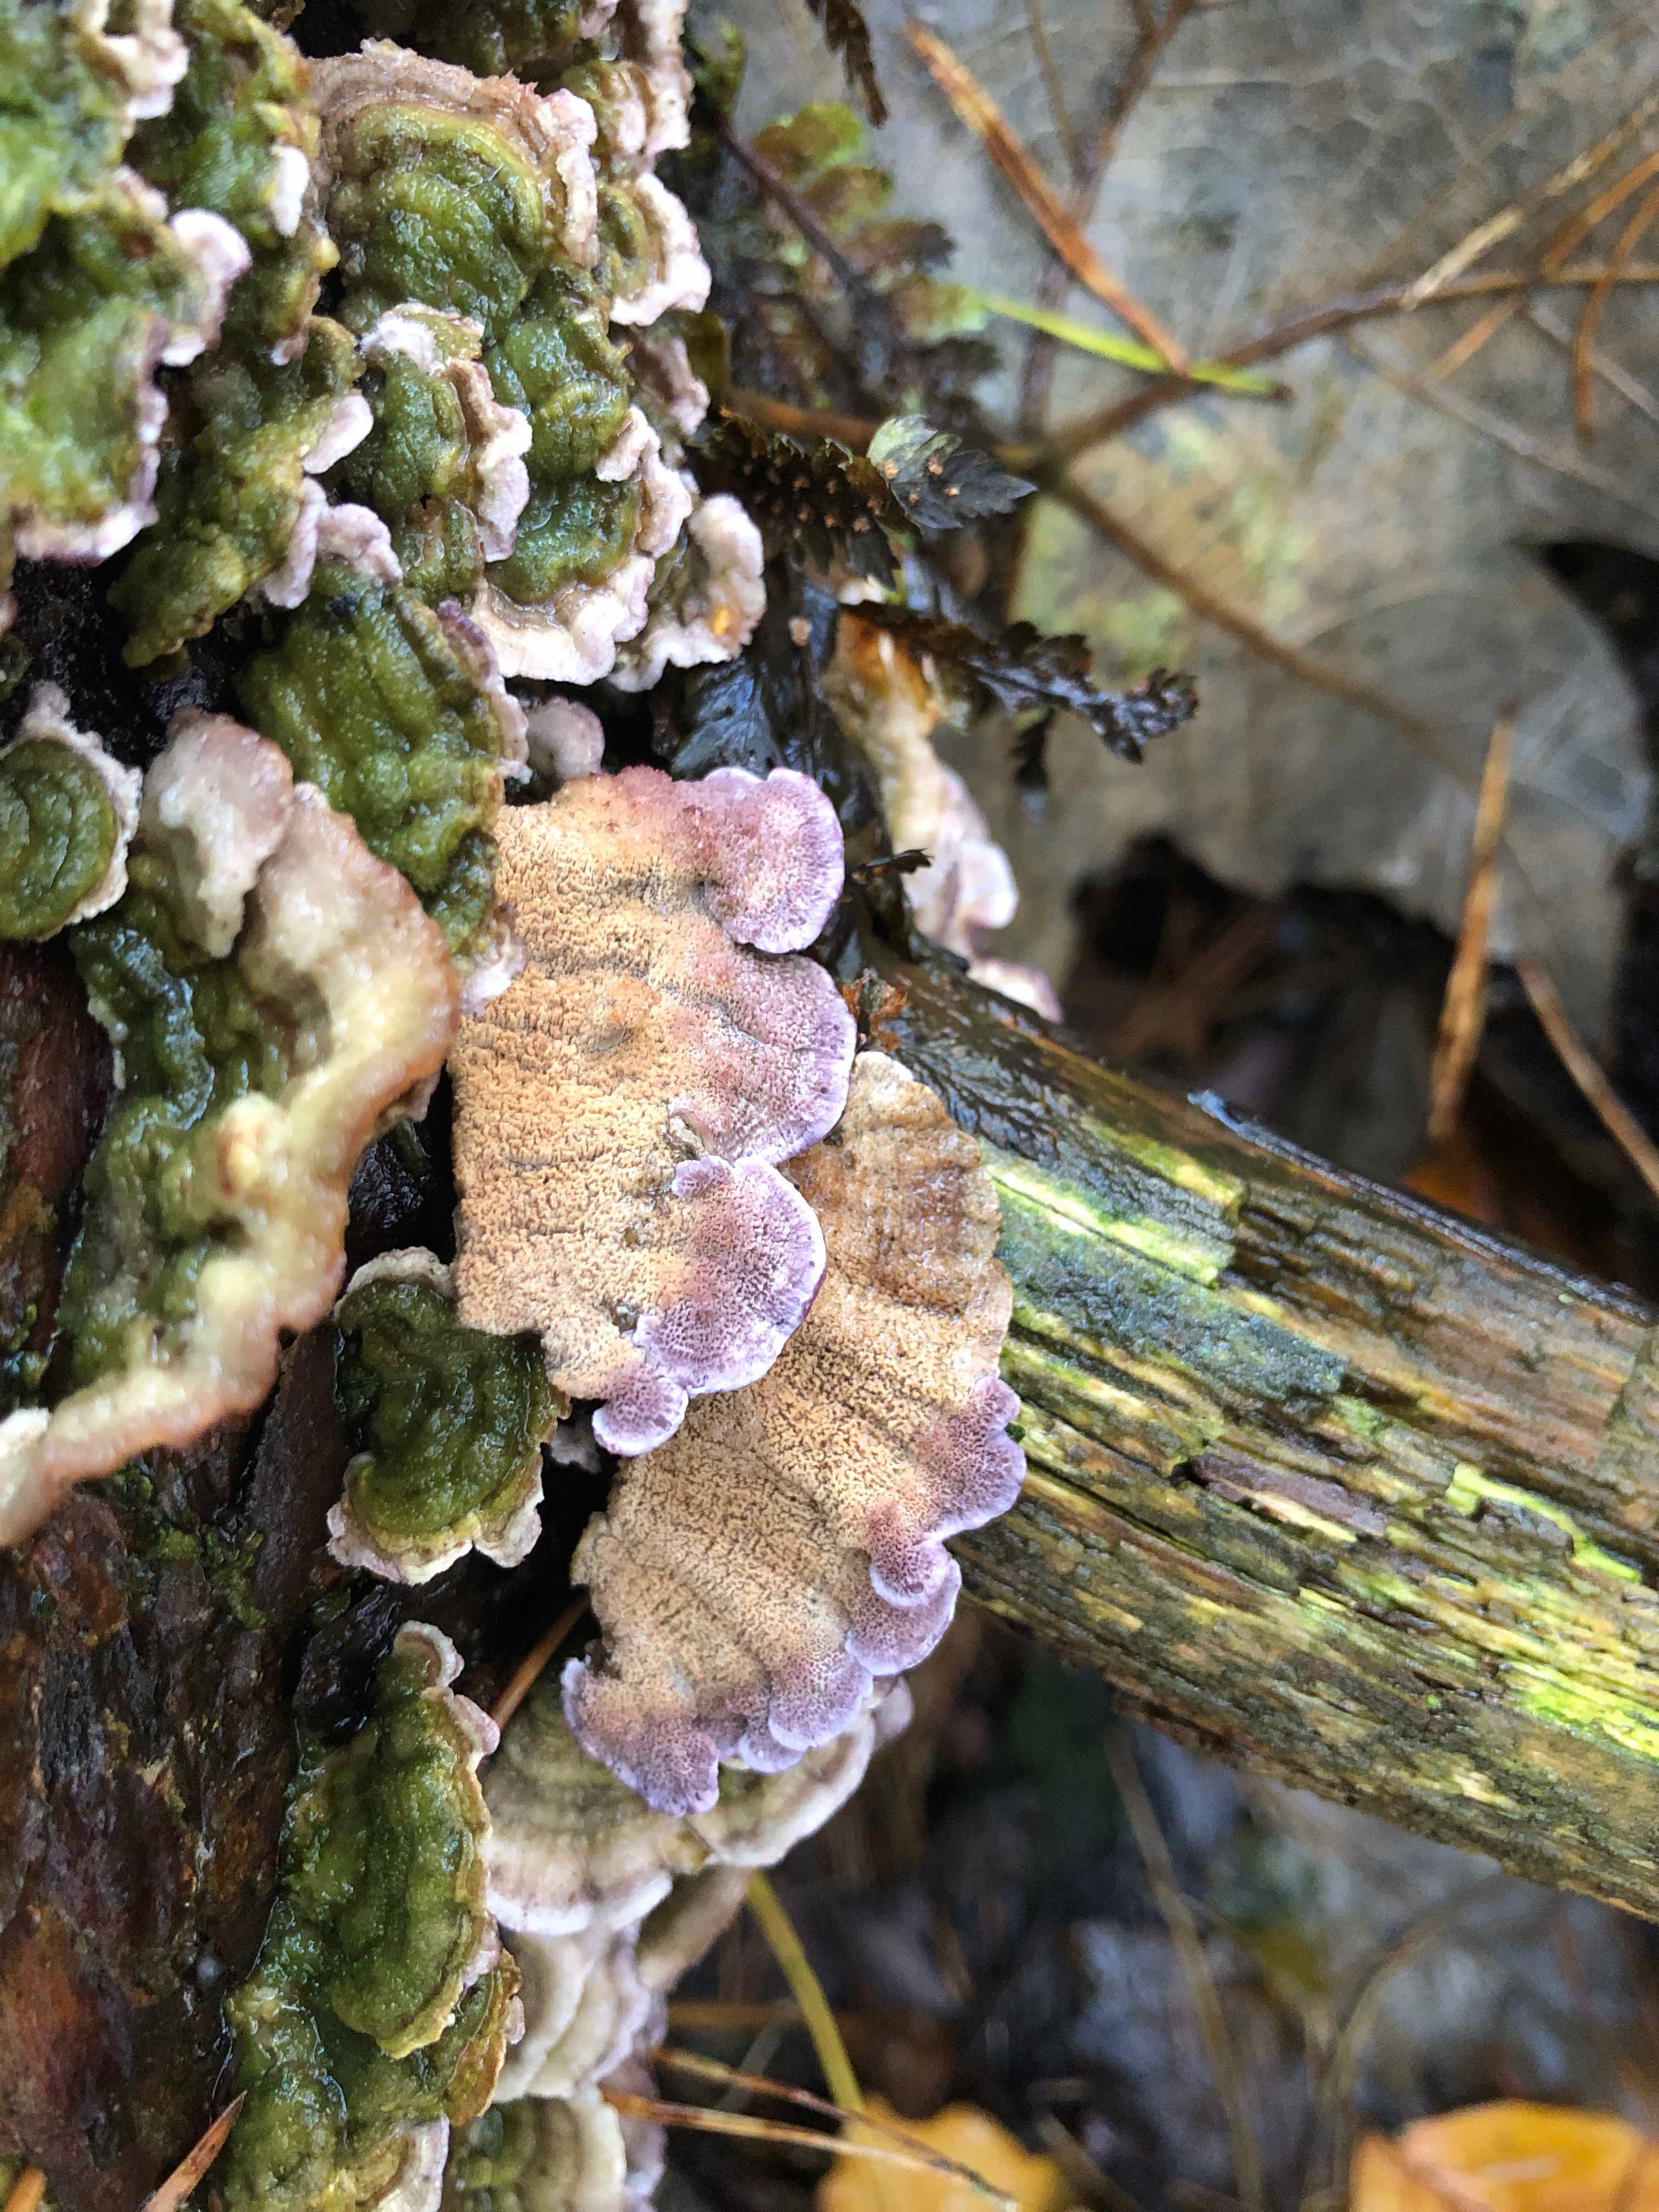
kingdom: Fungi
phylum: Basidiomycota
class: Agaricomycetes
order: Hymenochaetales
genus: Trichaptum
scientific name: Trichaptum abietinum
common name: almindelig violporesvamp
